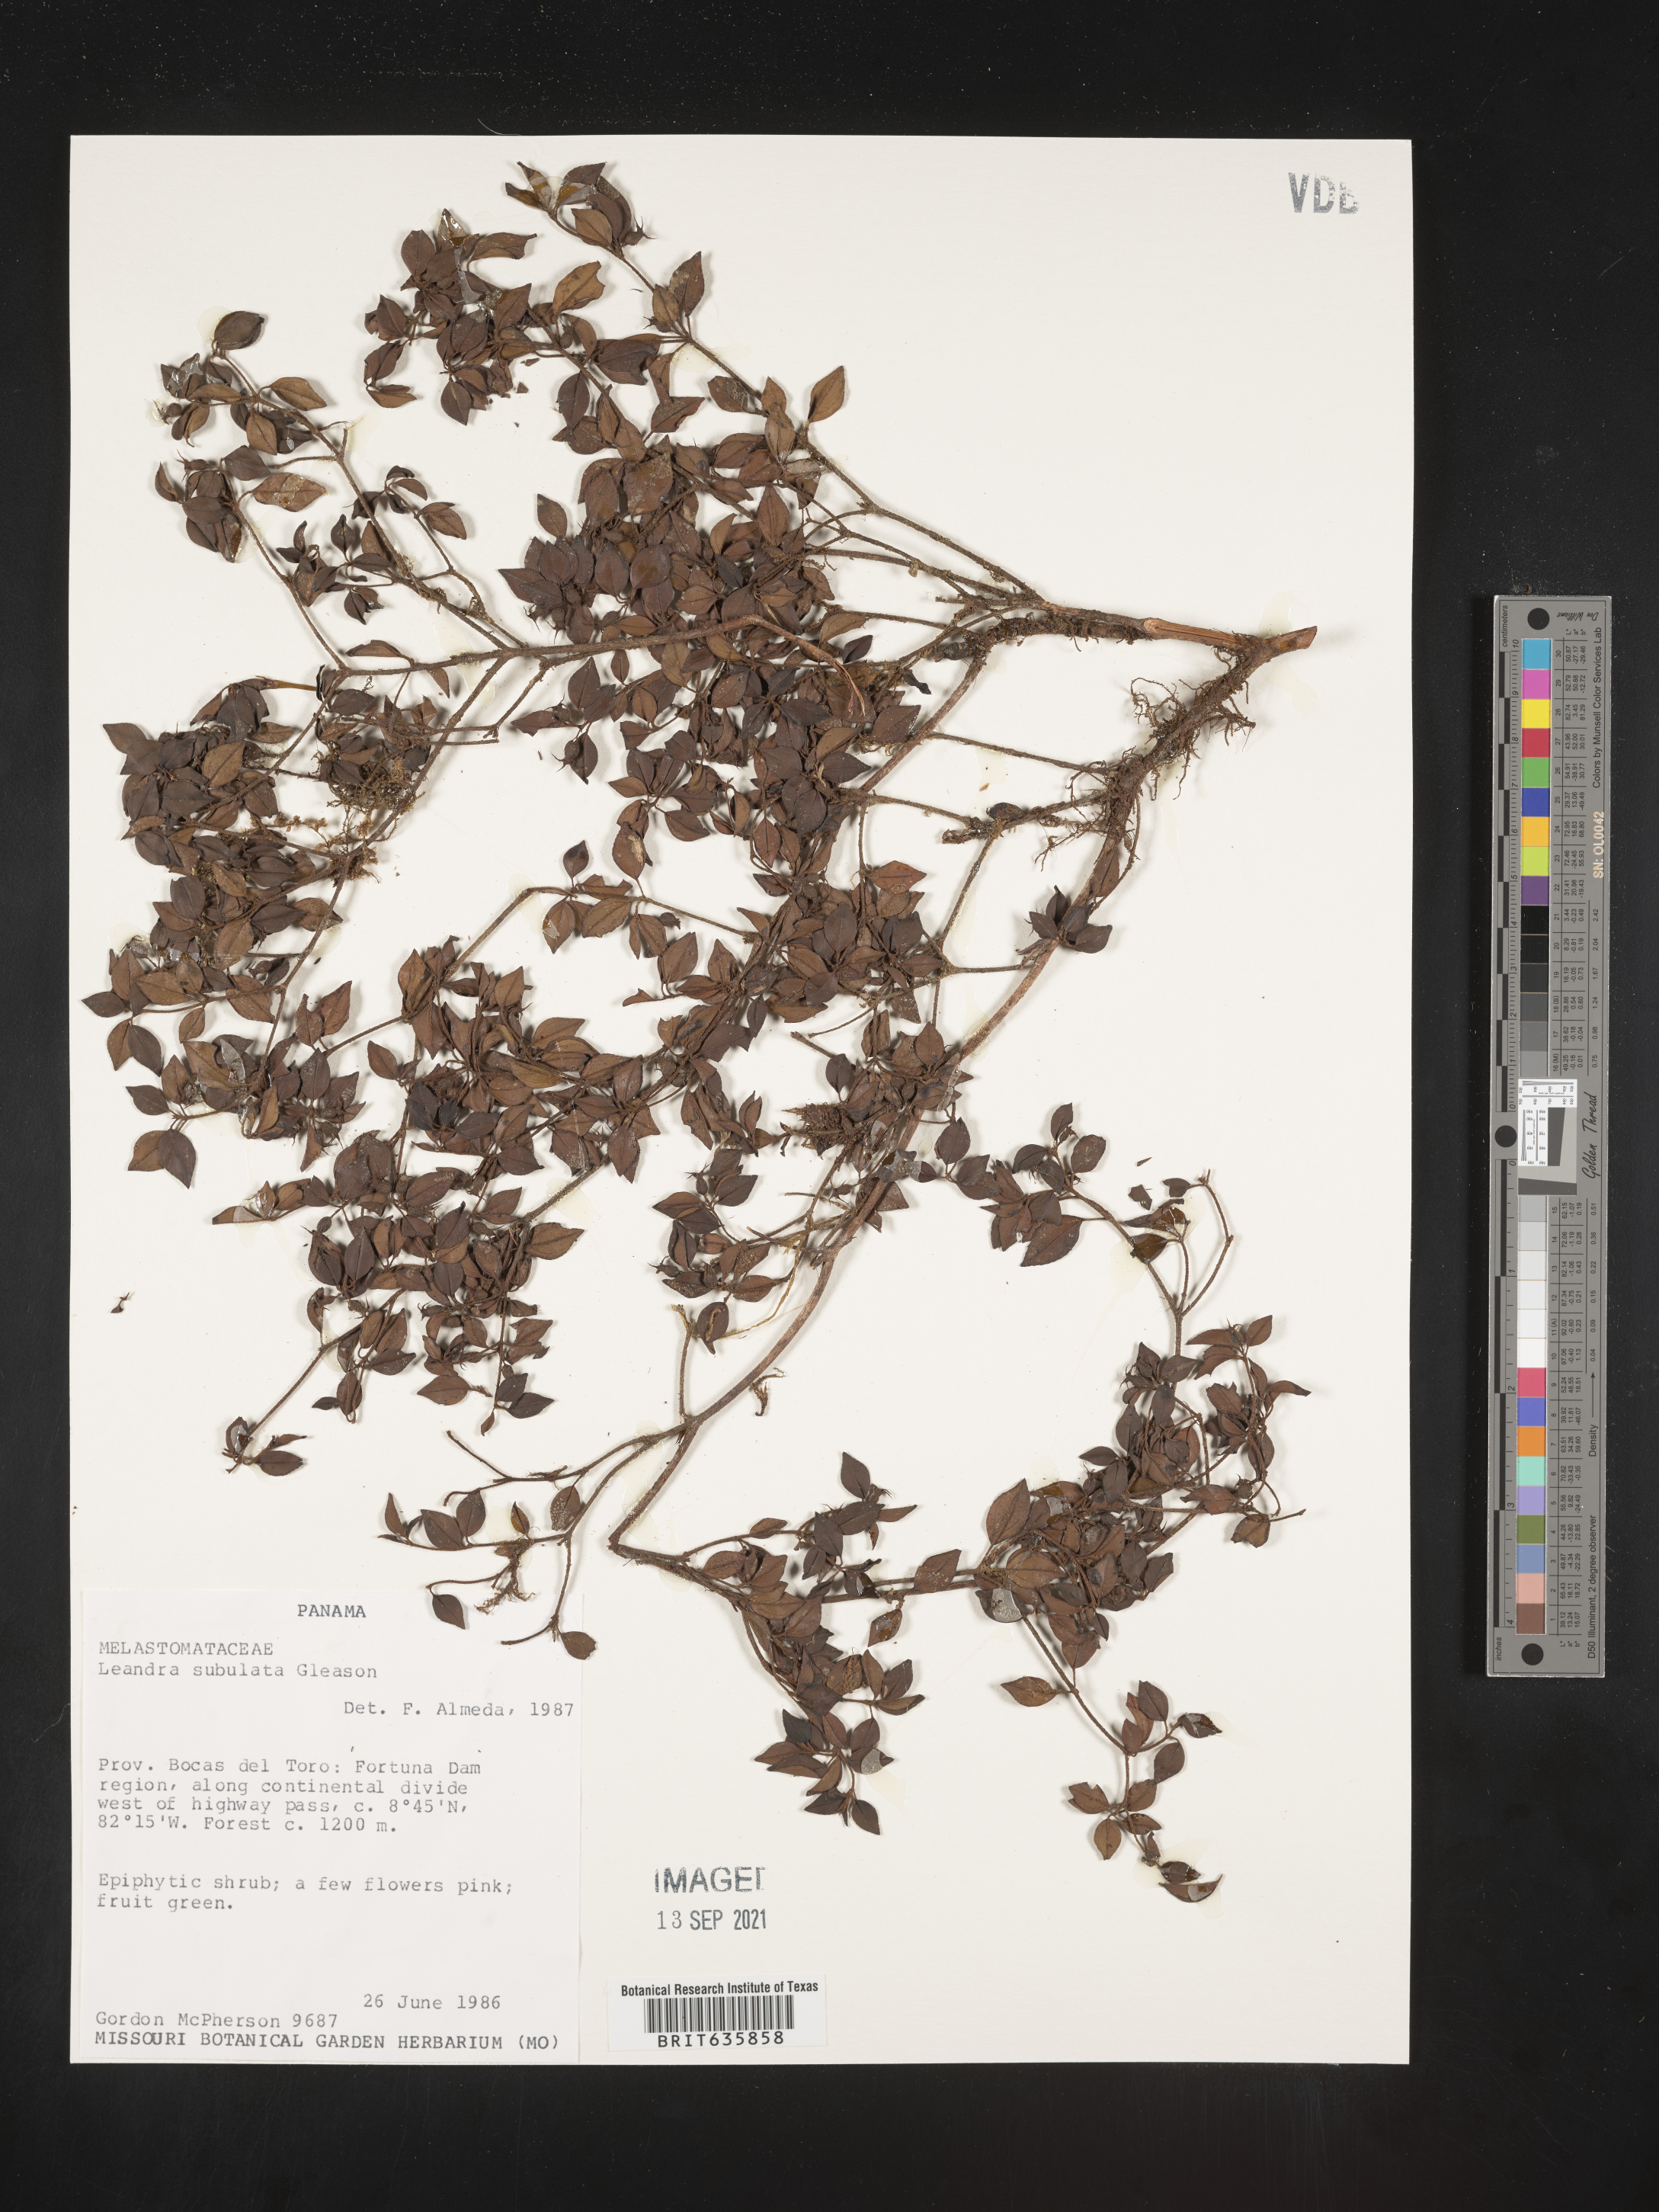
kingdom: Plantae
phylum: Tracheophyta
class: Magnoliopsida
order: Myrtales
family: Melastomataceae
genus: Miconia
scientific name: Miconia
